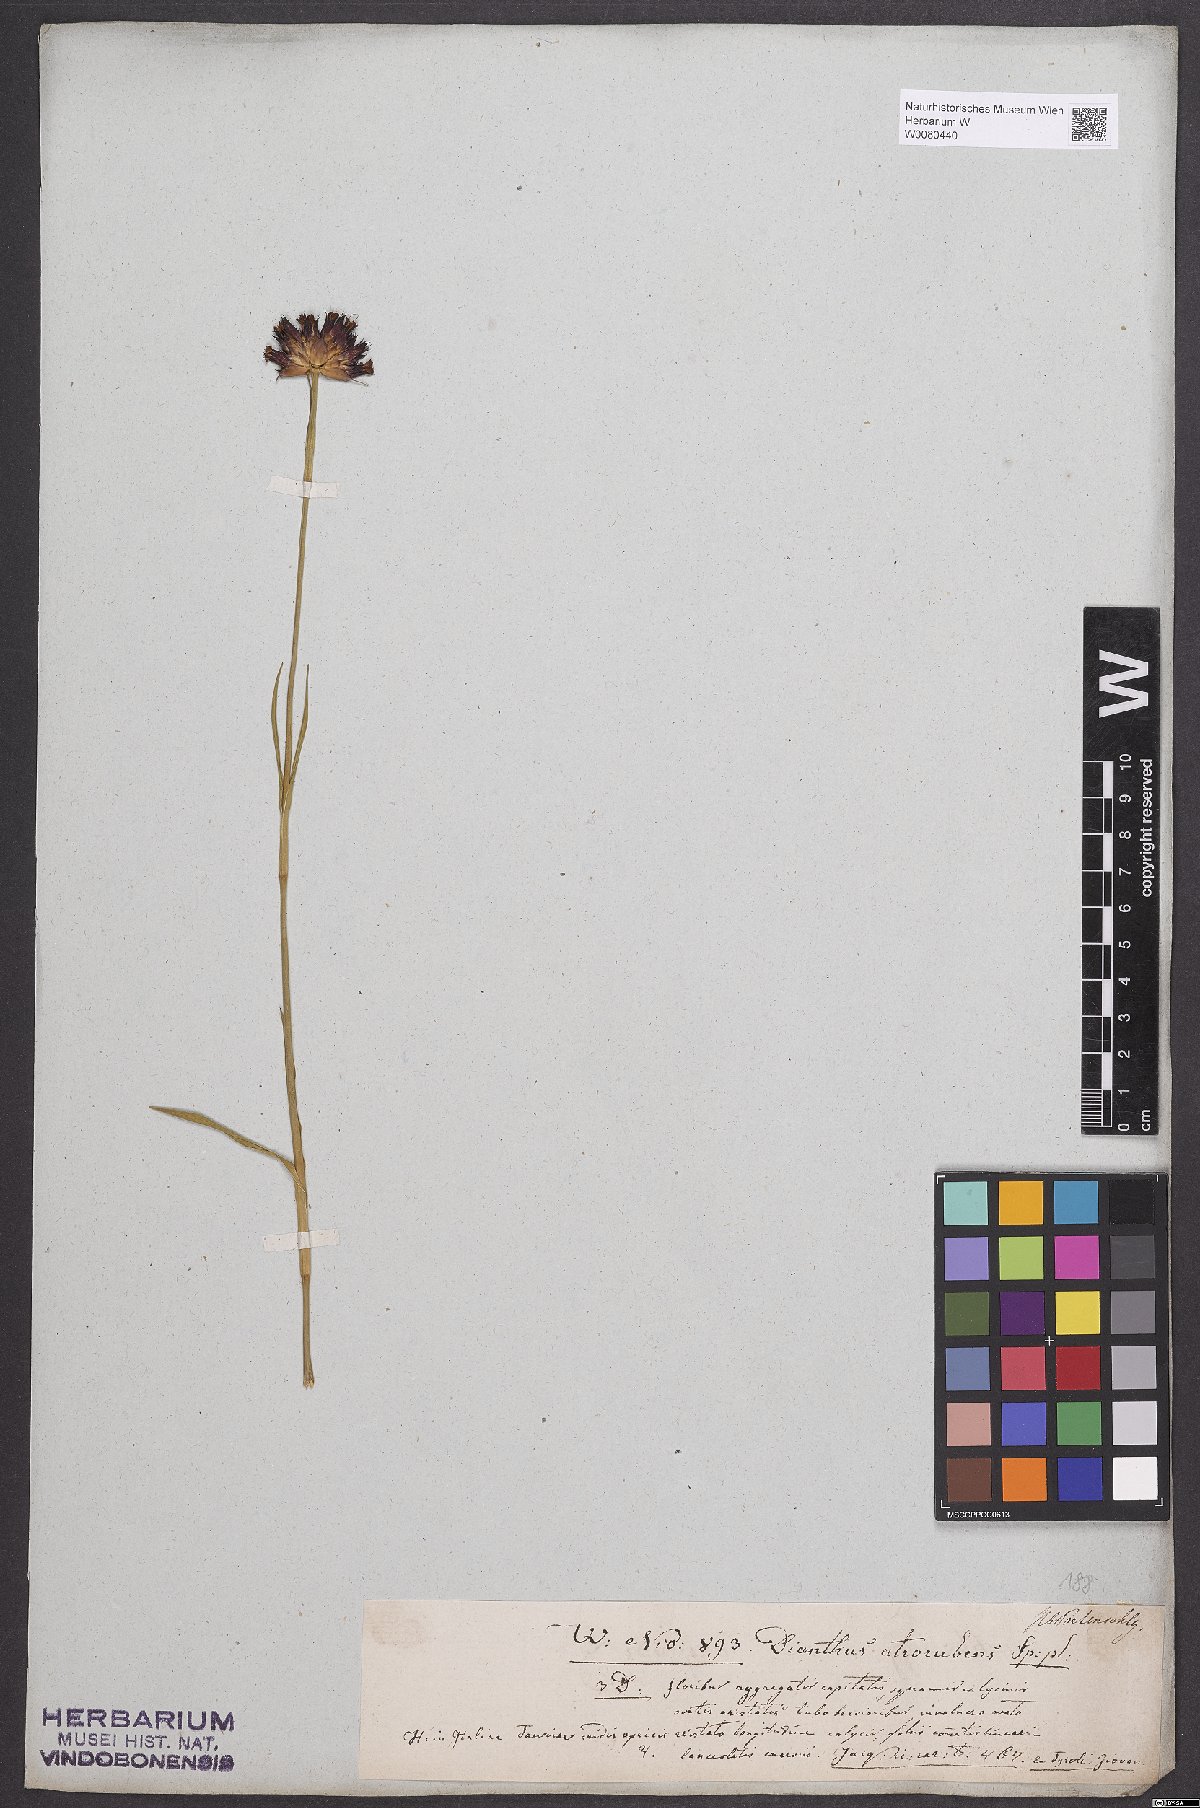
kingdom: Plantae
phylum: Tracheophyta
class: Magnoliopsida
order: Caryophyllales
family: Caryophyllaceae
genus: Dianthus
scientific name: Dianthus carthusianorum
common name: Carthusian pink
